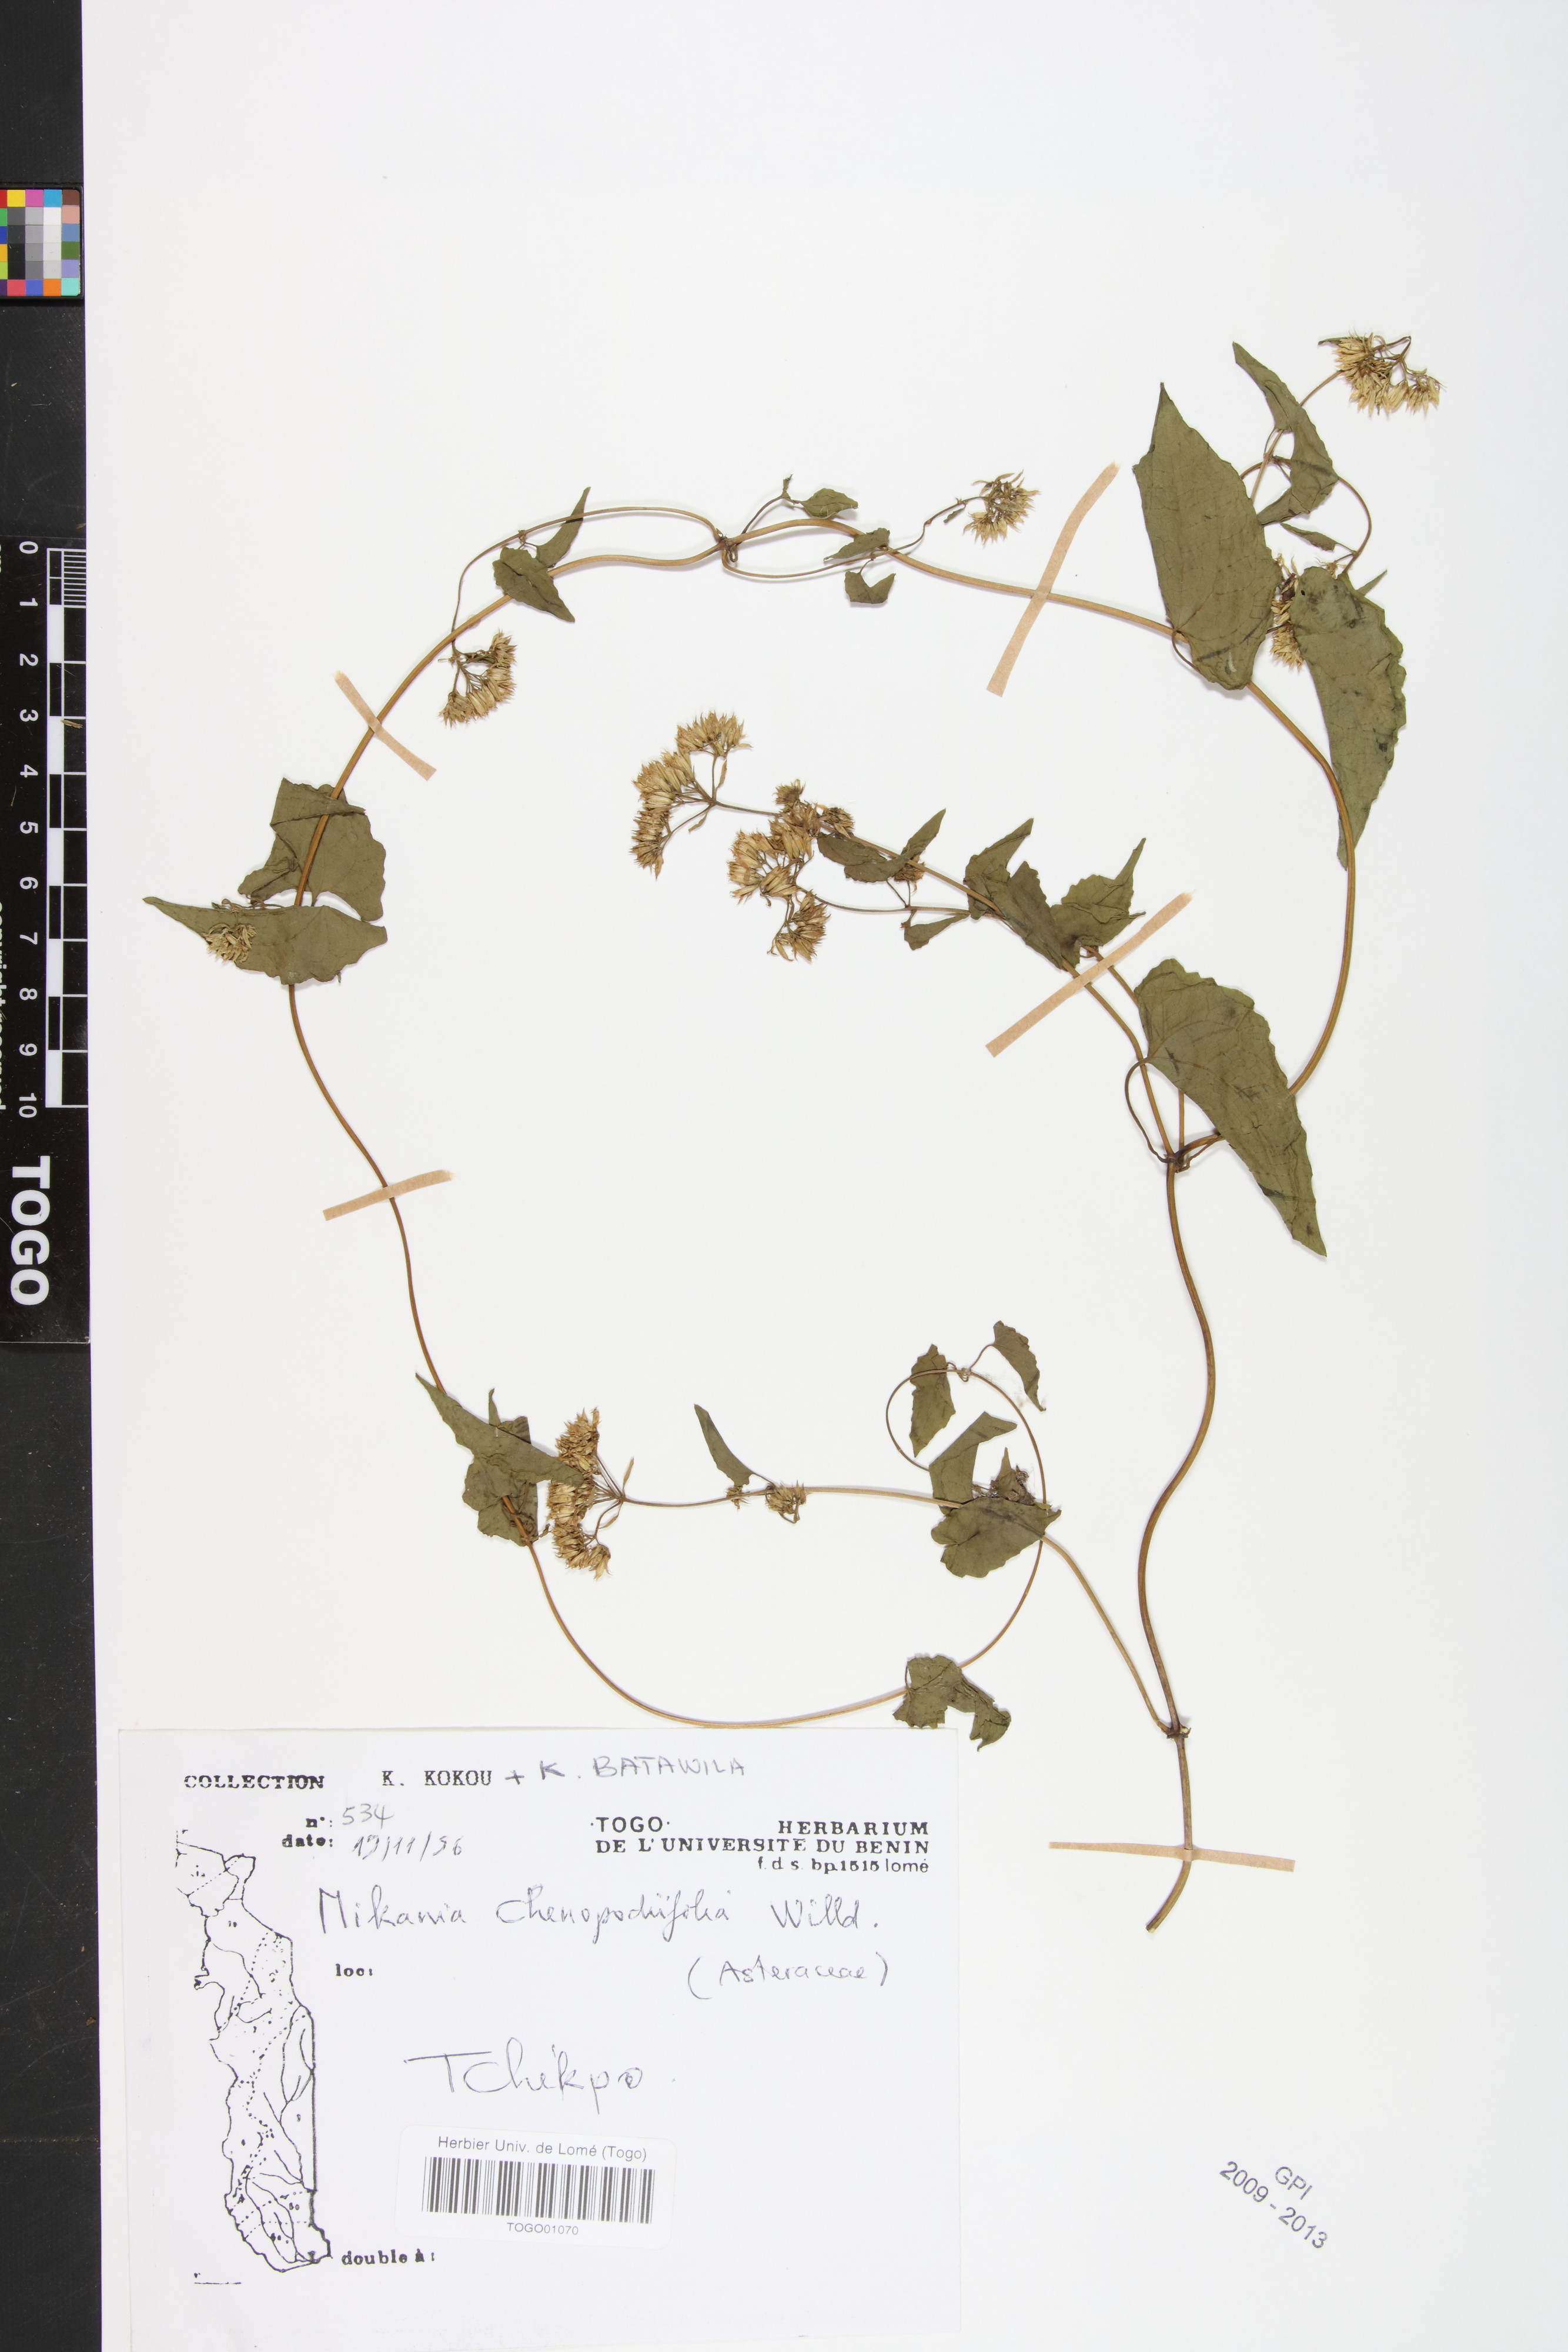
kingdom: Plantae
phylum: Tracheophyta
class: Magnoliopsida
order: Asterales
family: Asteraceae
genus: Mikania
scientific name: Mikania chenopodifolia
